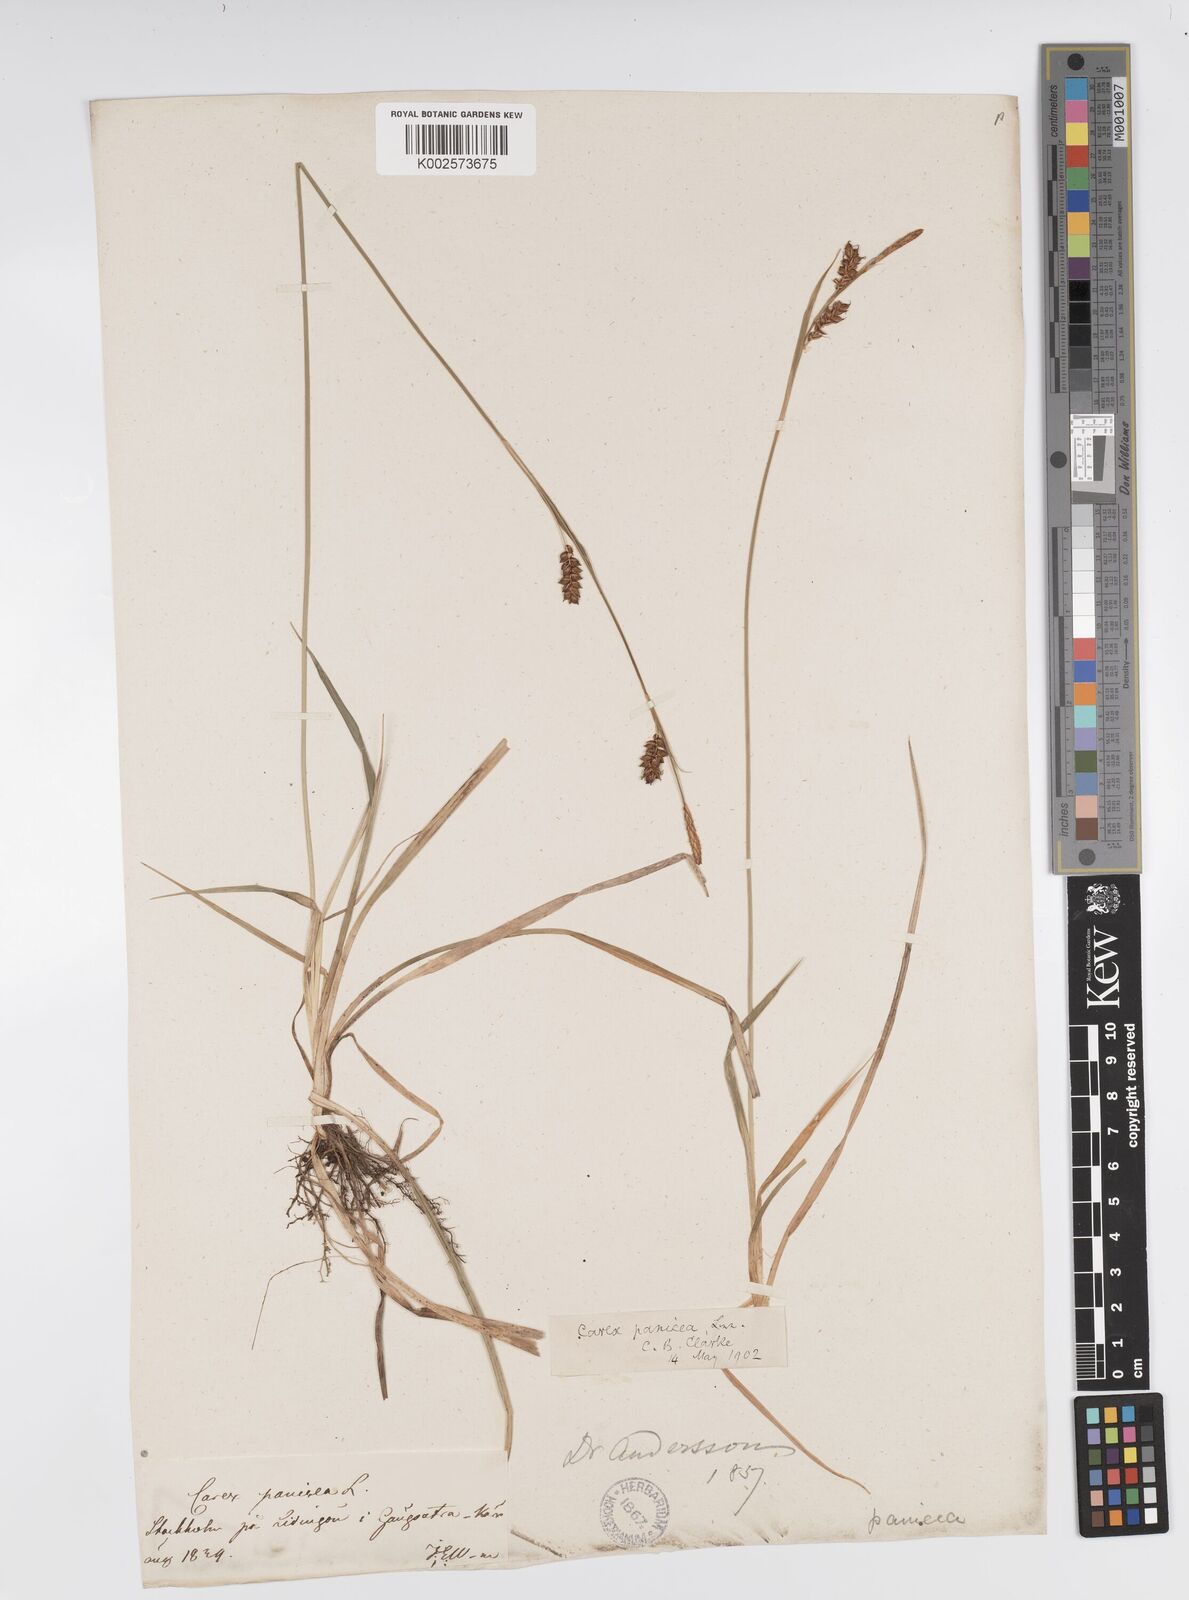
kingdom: Plantae
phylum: Tracheophyta
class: Liliopsida
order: Poales
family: Cyperaceae
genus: Carex
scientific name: Carex panicea
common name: Carnation sedge
